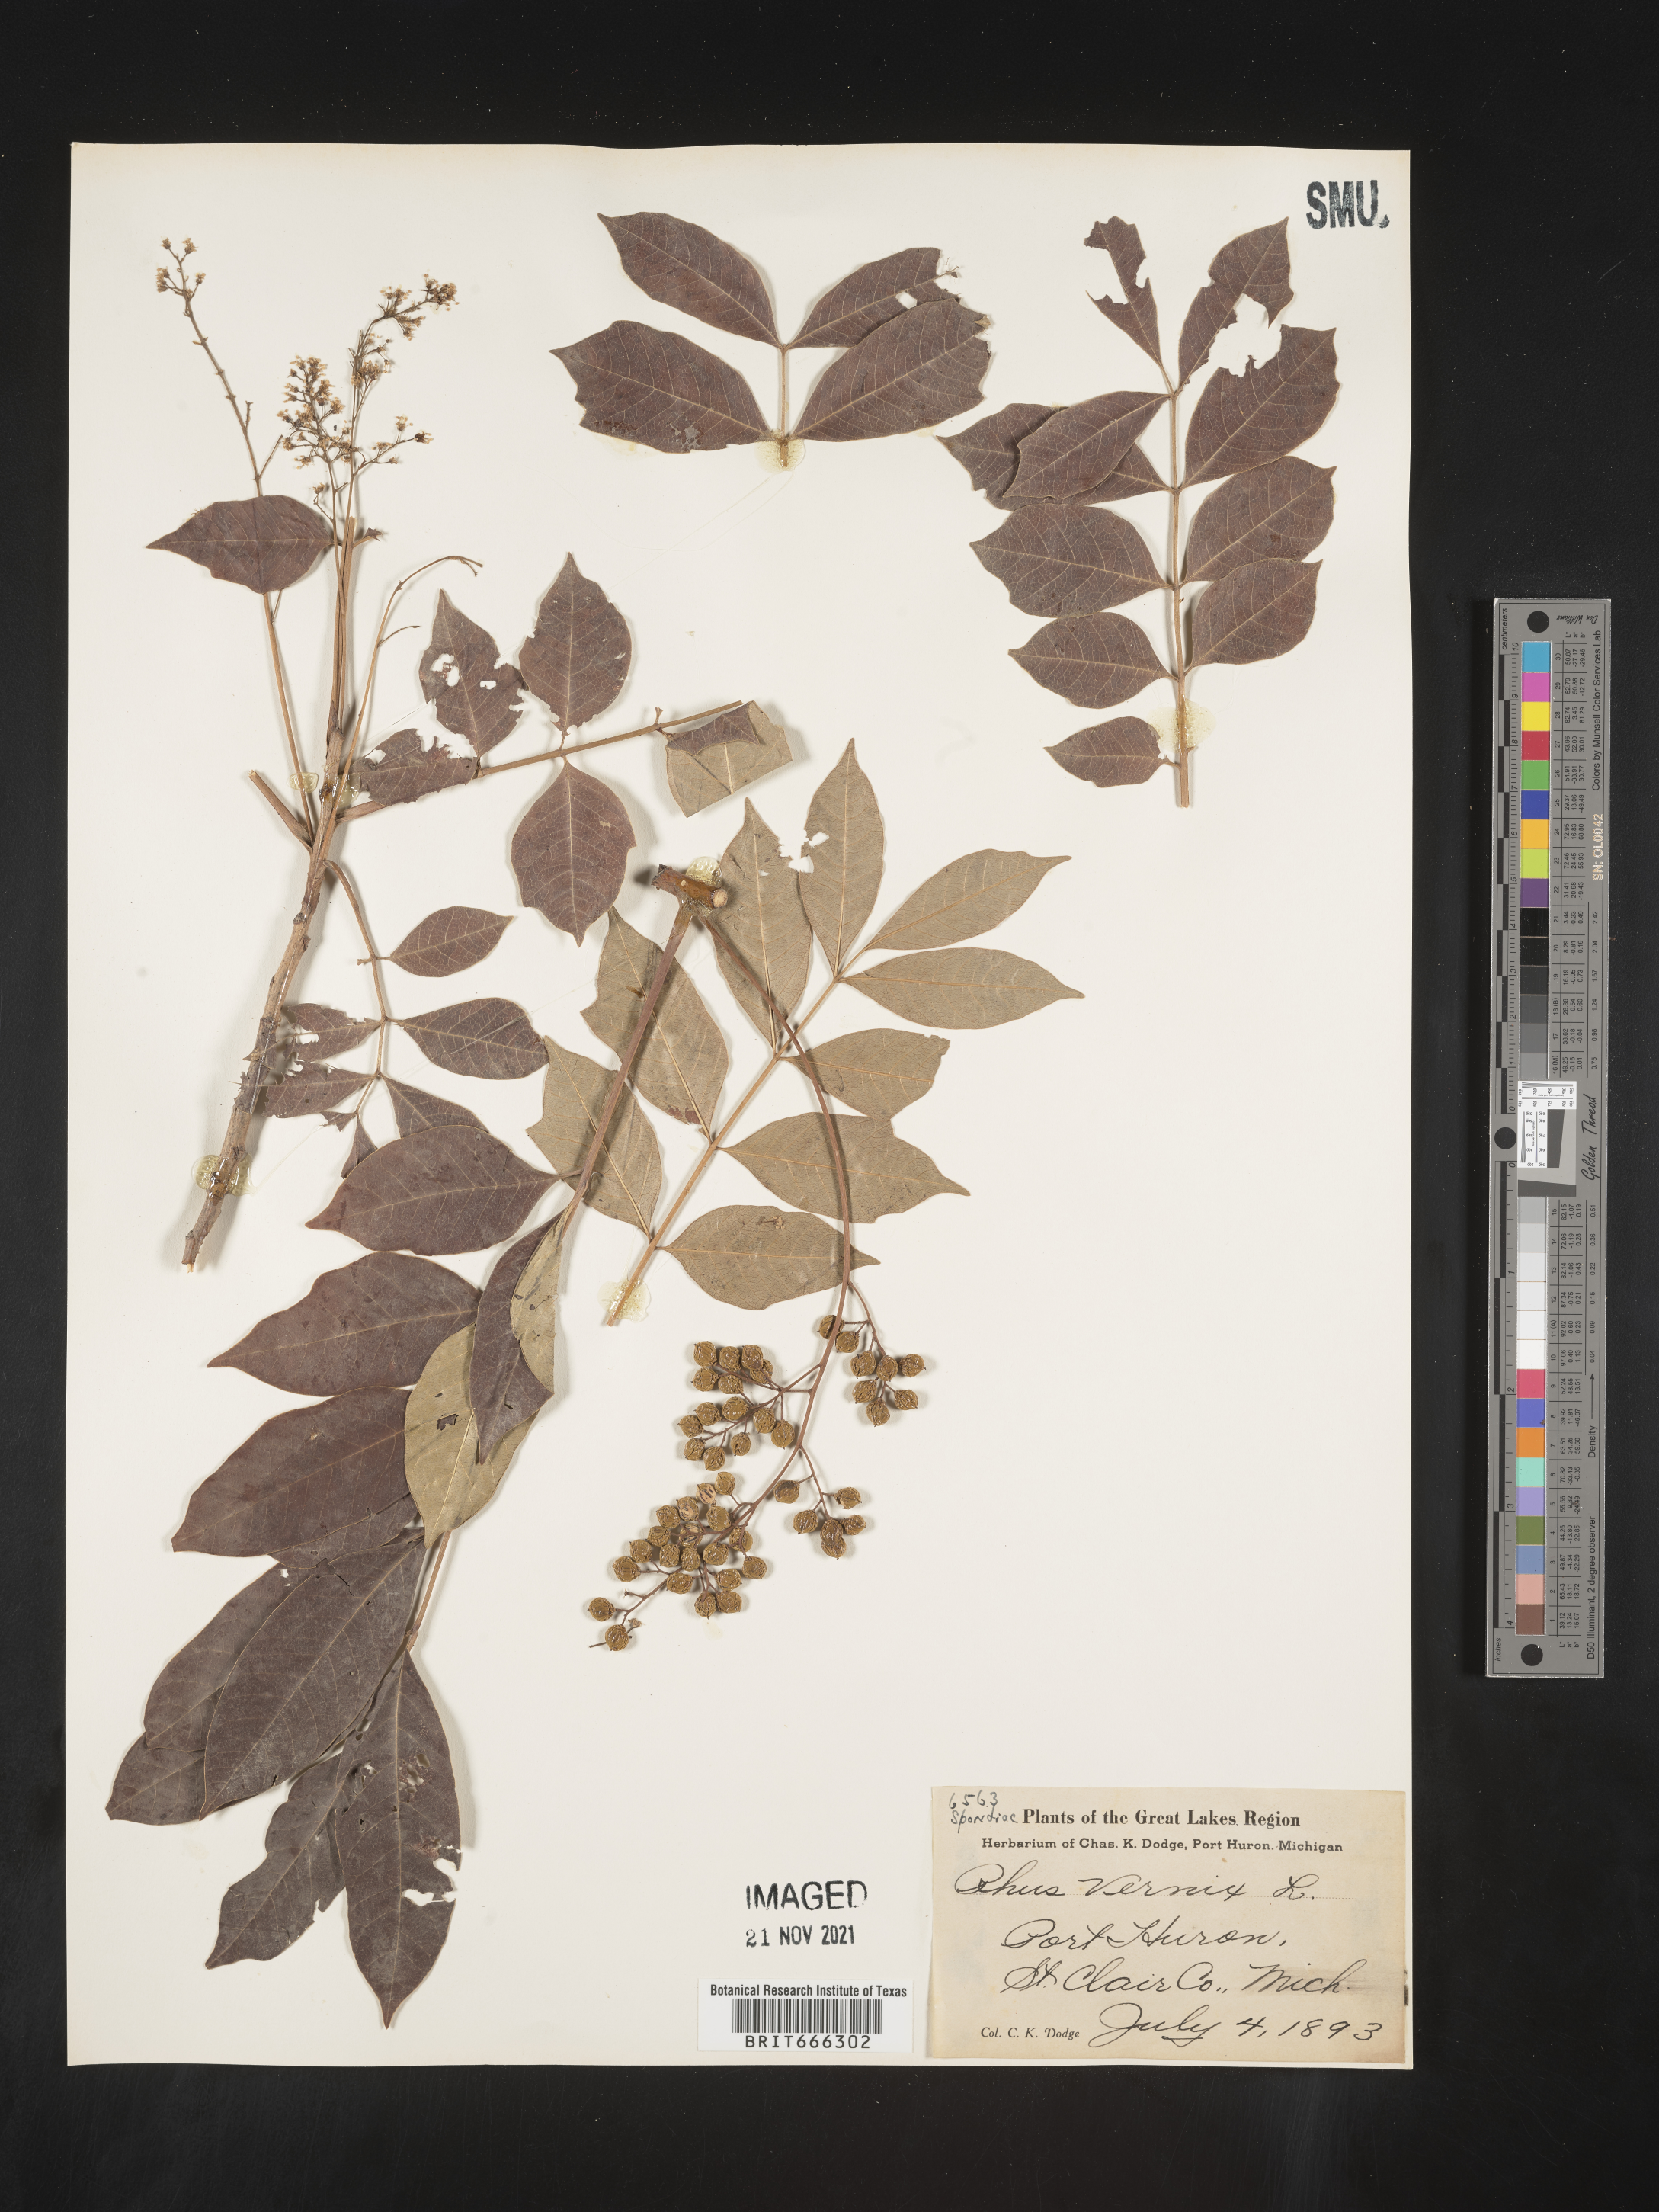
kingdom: Plantae
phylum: Tracheophyta
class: Magnoliopsida
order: Sapindales
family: Anacardiaceae
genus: Toxicodendron
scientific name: Toxicodendron vernix
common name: Poison sumac
